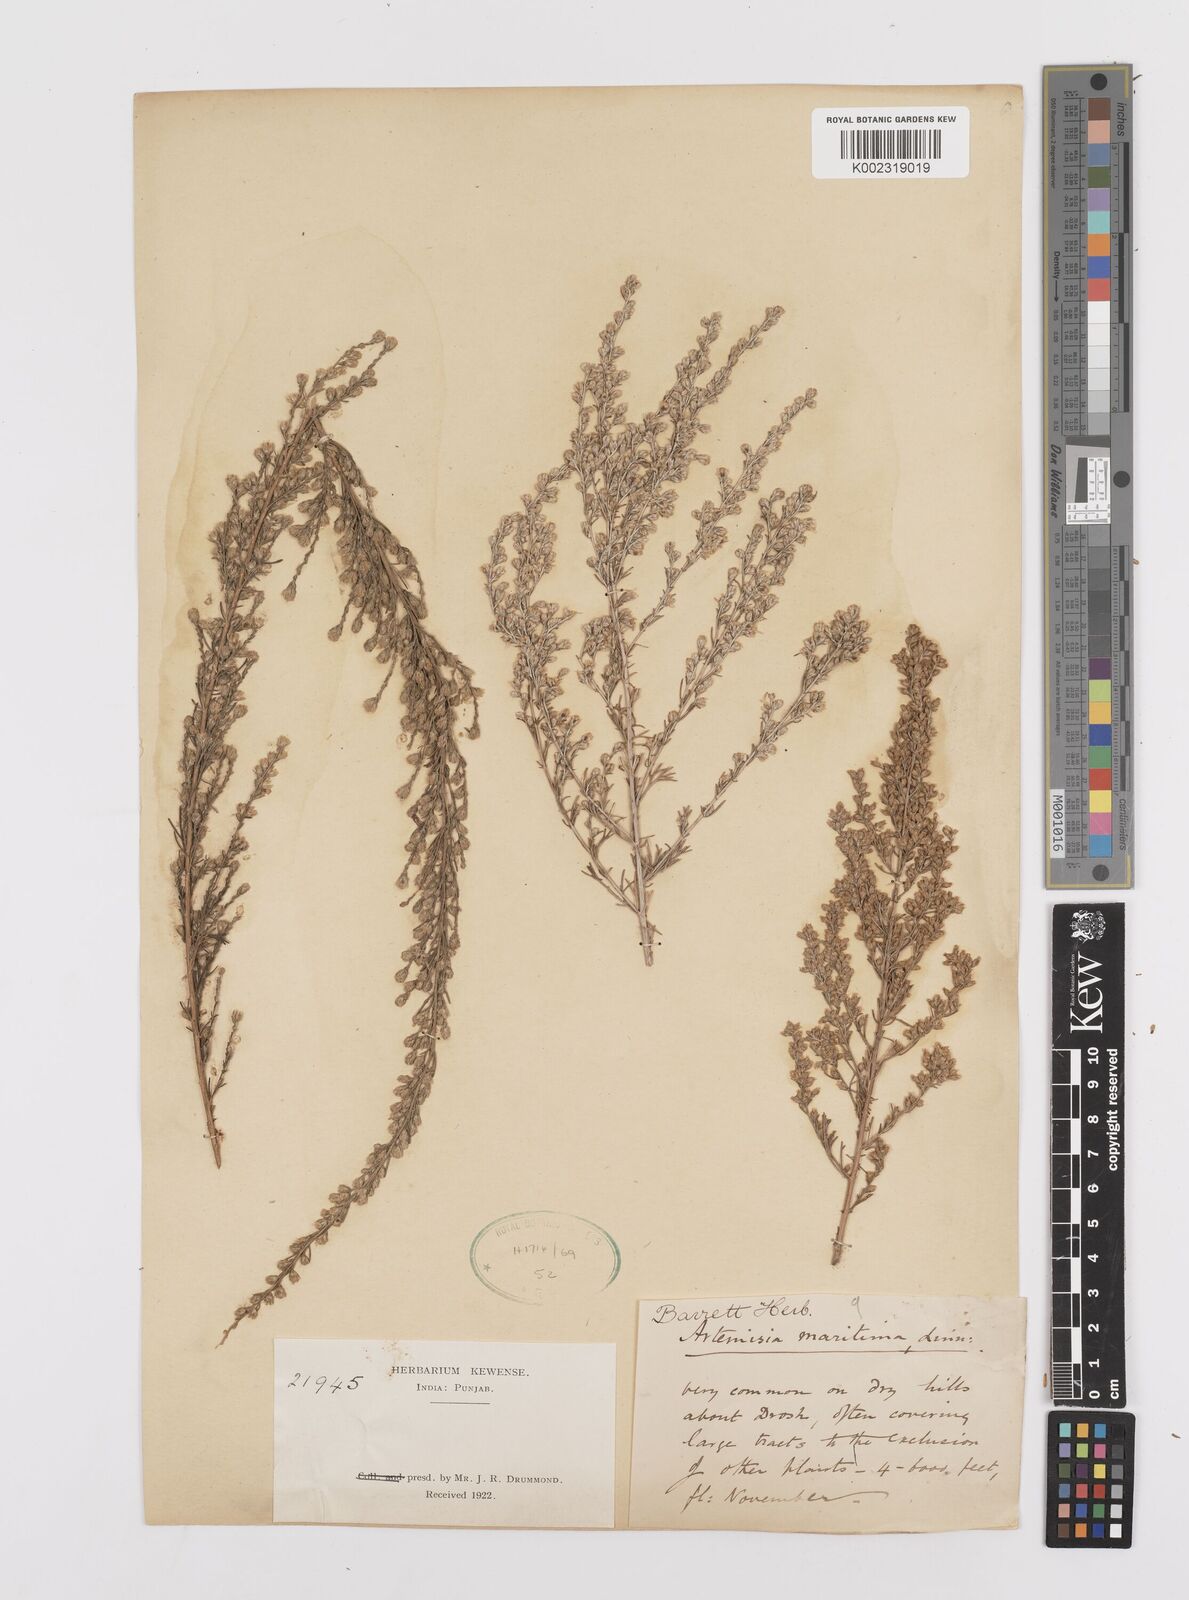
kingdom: Plantae
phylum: Tracheophyta
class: Magnoliopsida
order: Asterales
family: Asteraceae
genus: Artemisia
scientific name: Artemisia kurramensis
